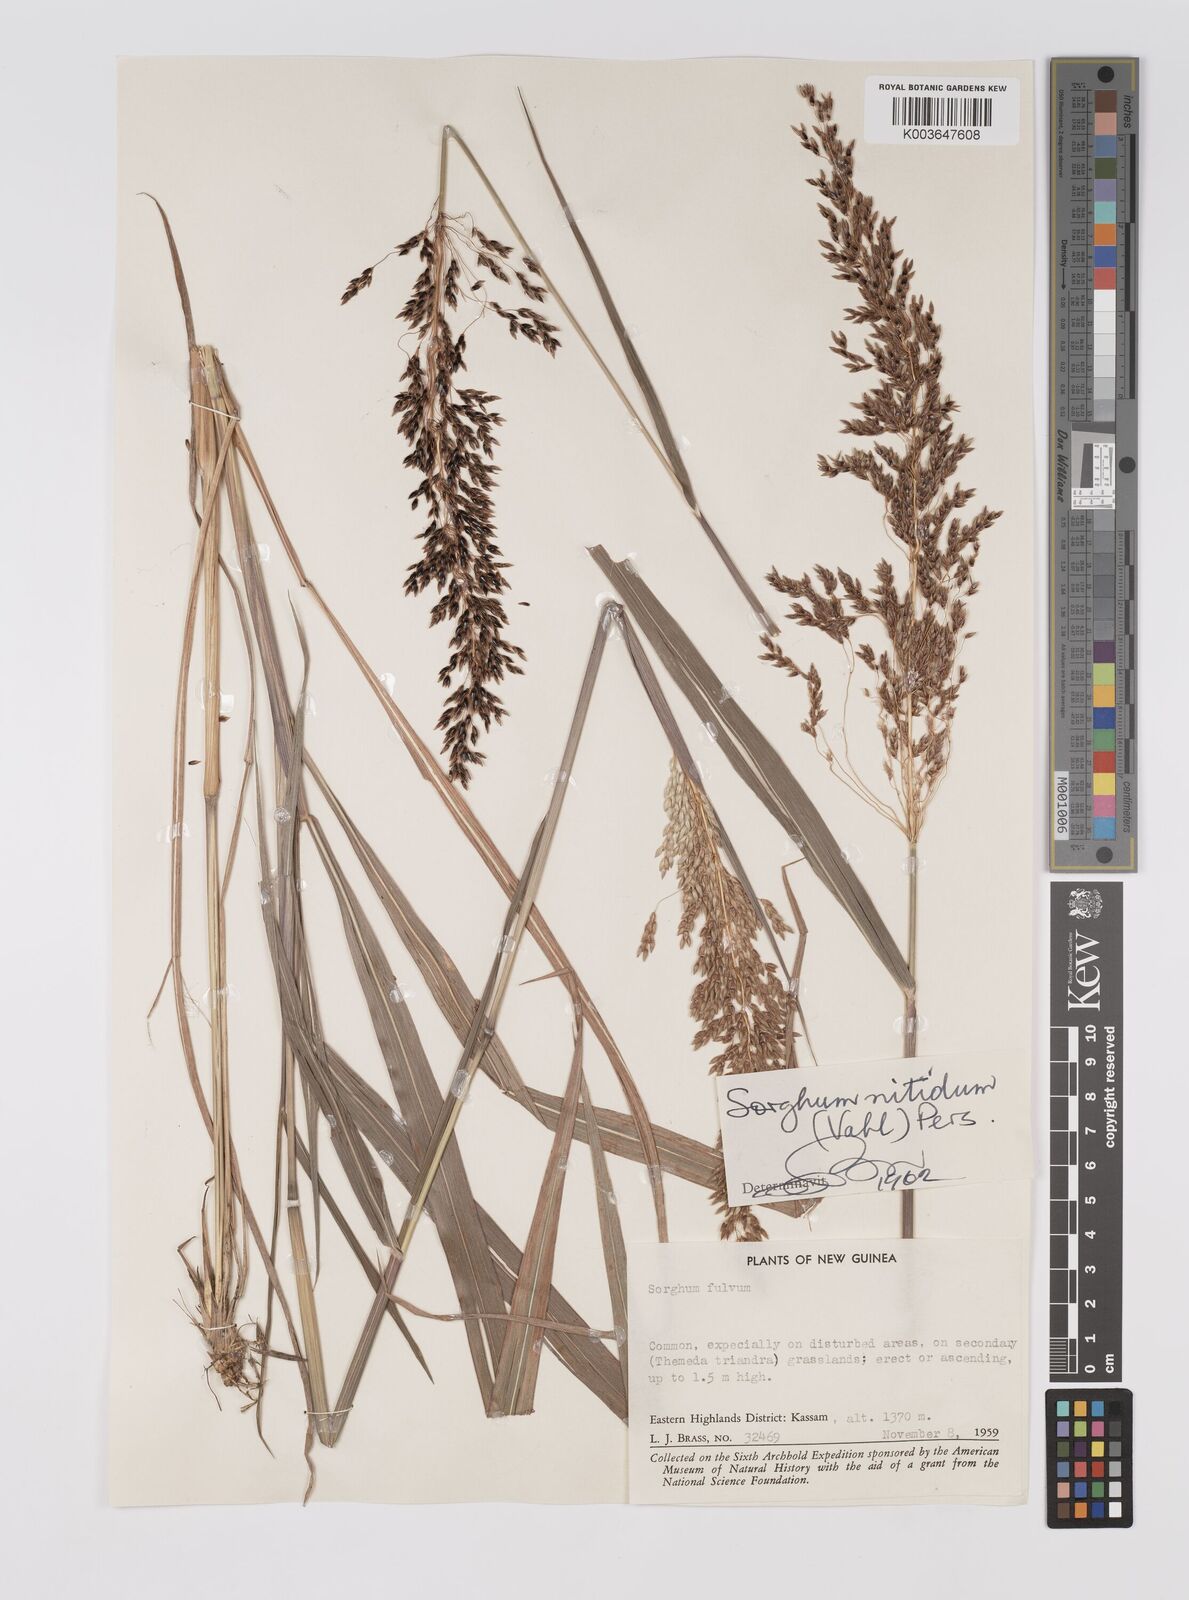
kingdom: Plantae
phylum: Tracheophyta
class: Liliopsida
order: Poales
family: Poaceae
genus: Sorghum
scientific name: Sorghum nitidum
